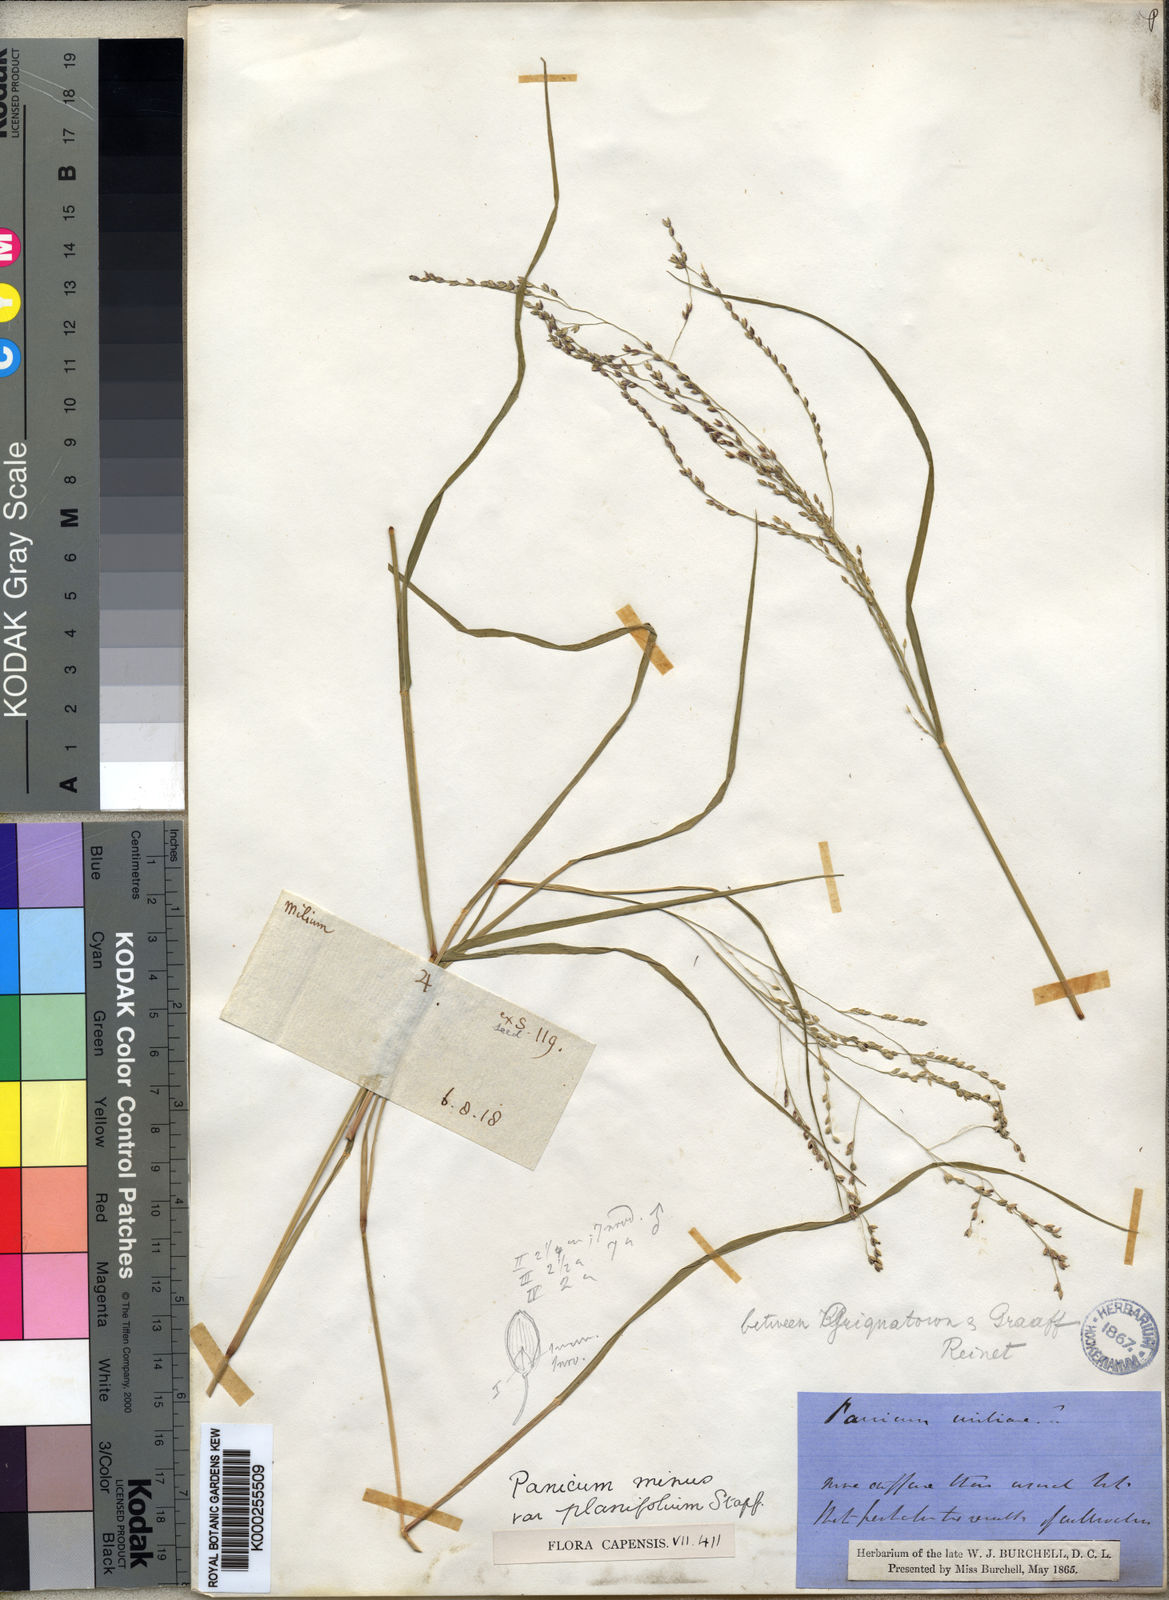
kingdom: Plantae
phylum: Tracheophyta
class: Liliopsida
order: Poales
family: Poaceae
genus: Panicum
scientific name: Panicum stapfianum
